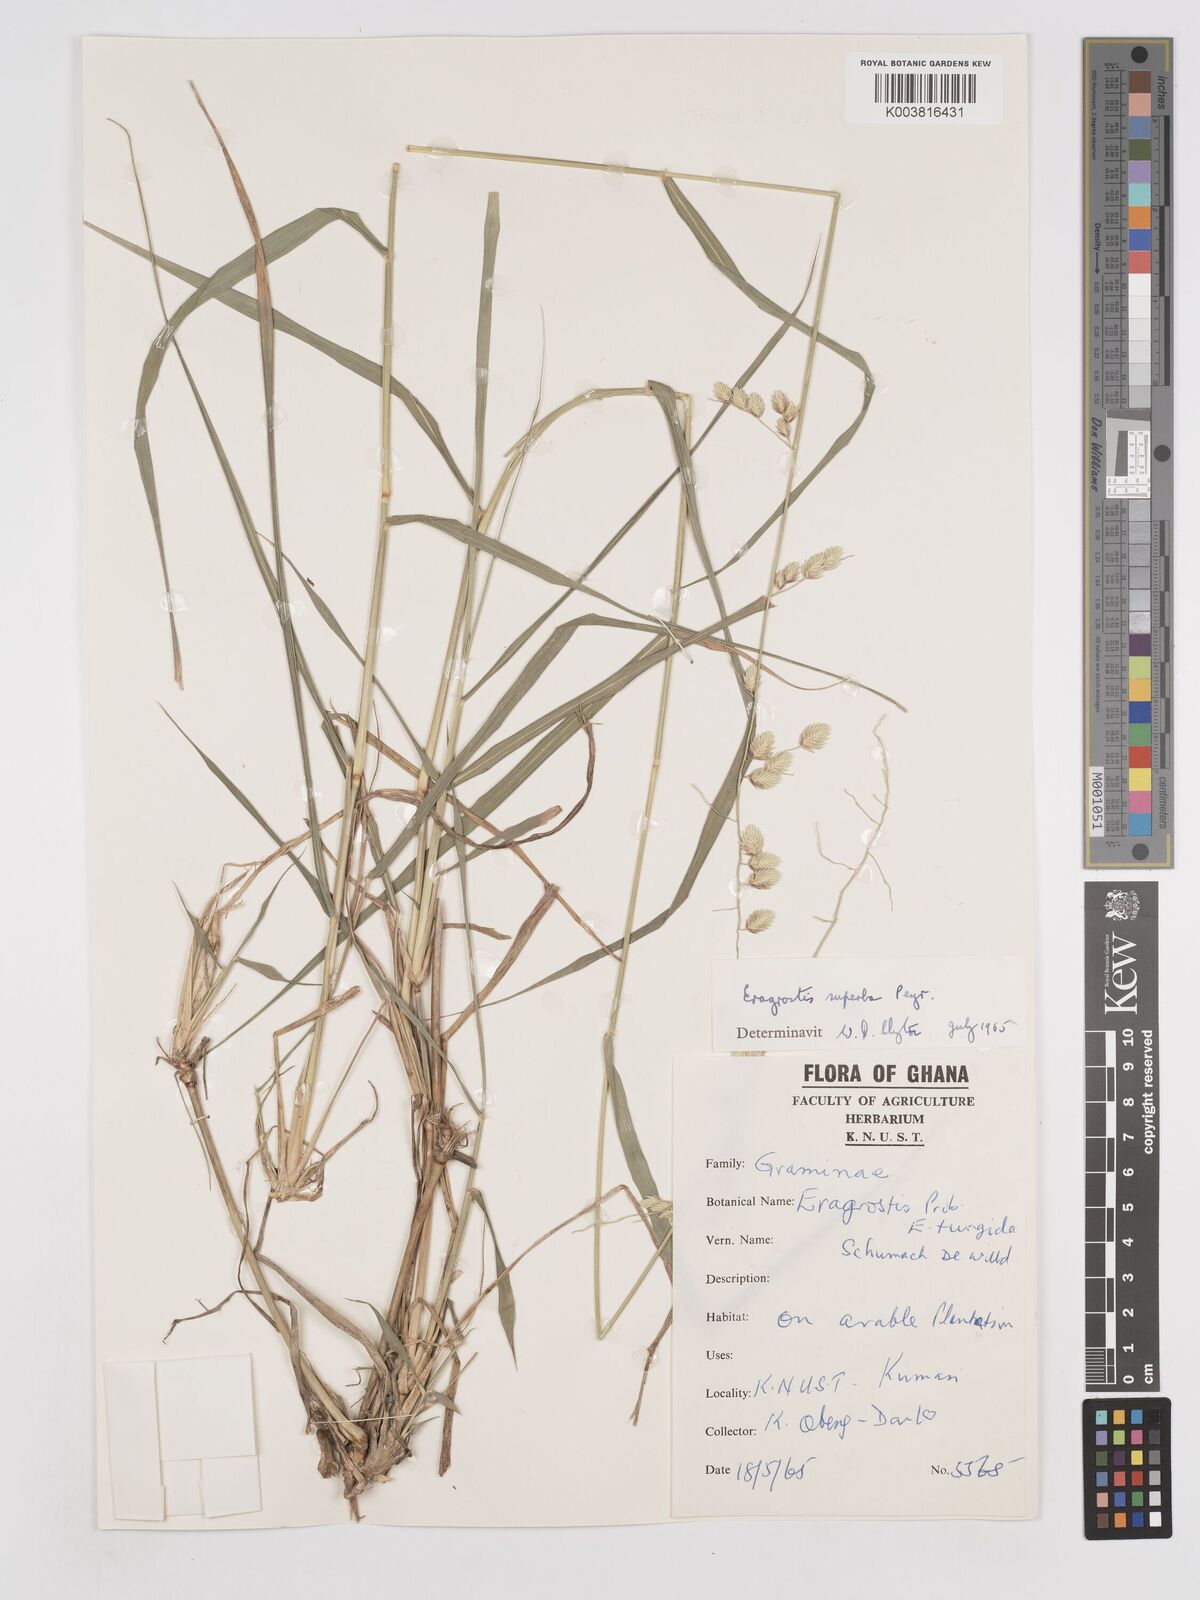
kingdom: Plantae
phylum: Tracheophyta
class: Liliopsida
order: Poales
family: Poaceae
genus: Eragrostis
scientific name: Eragrostis superba
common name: Wilman lovegrass
